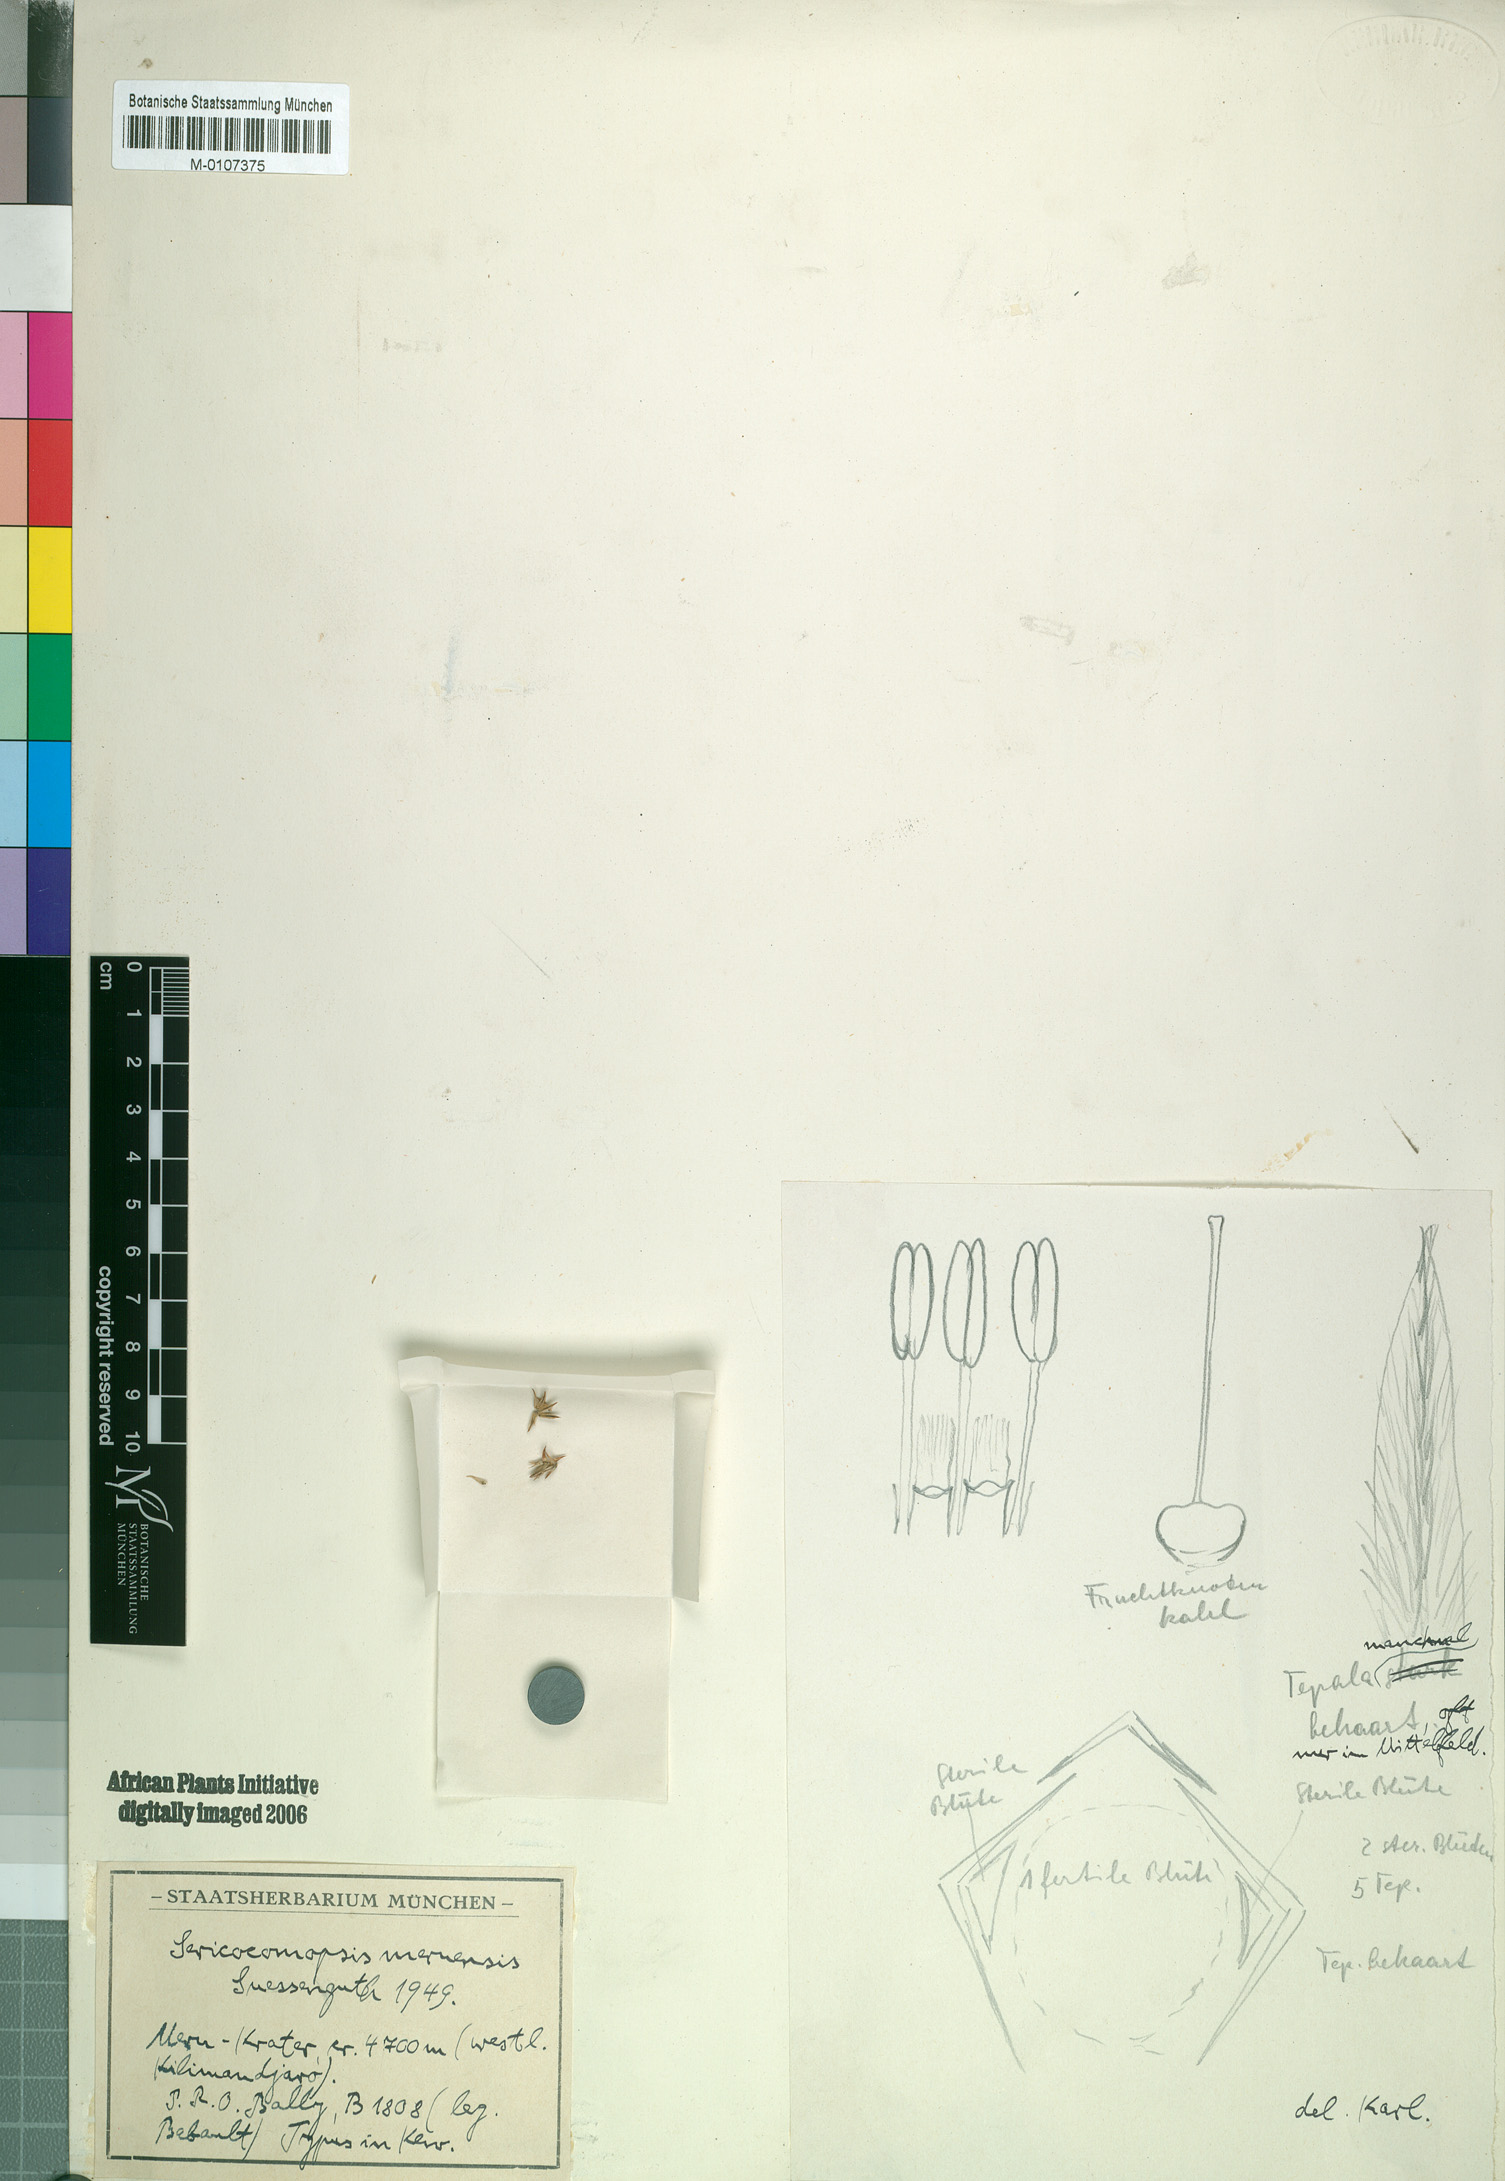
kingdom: Plantae
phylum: Tracheophyta
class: Magnoliopsida
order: Caryophyllales
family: Amaranthaceae
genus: Sericocomopsis
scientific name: Sericocomopsis hildebrandtii
